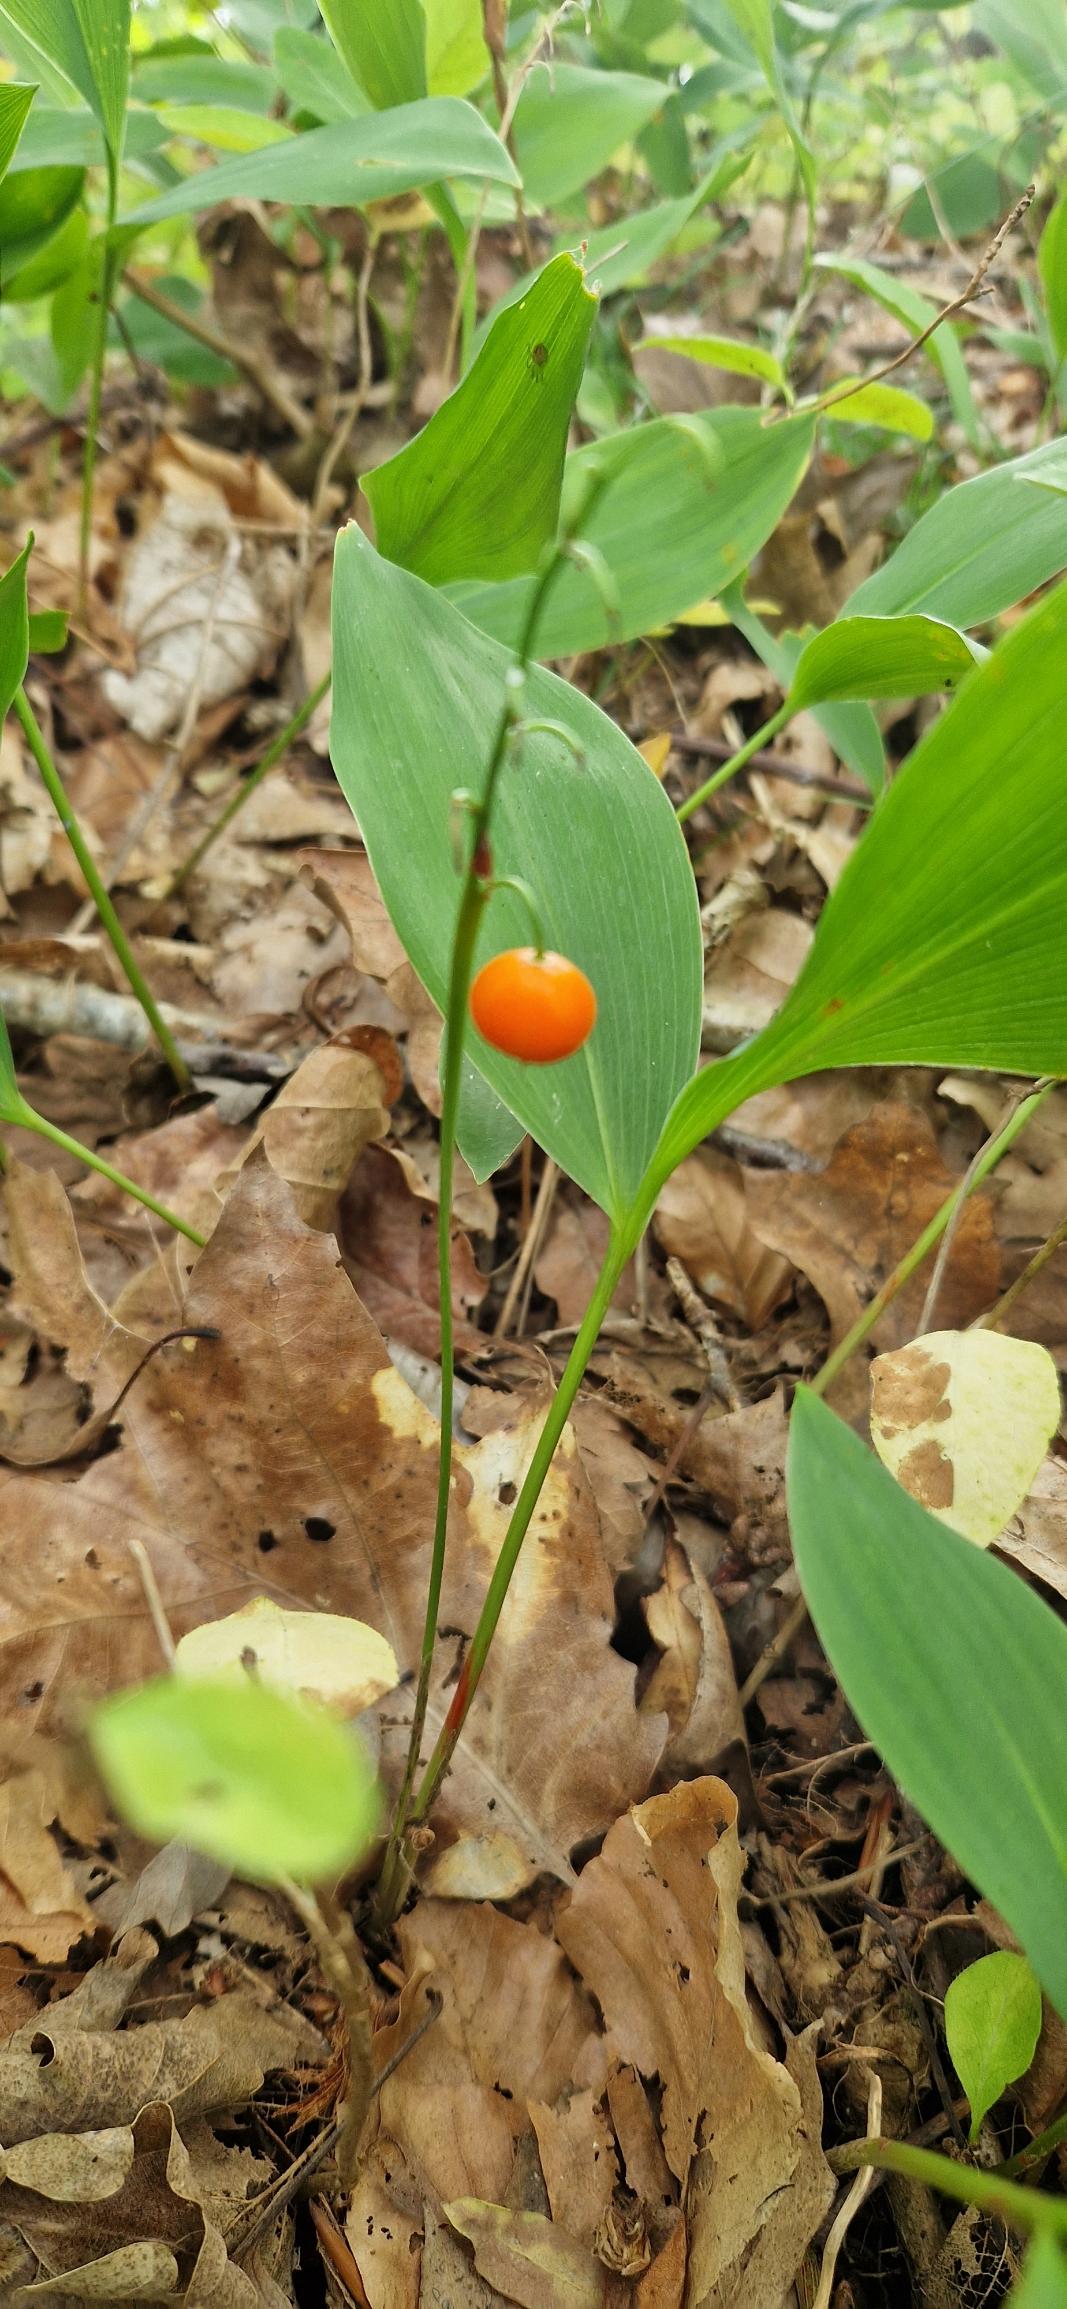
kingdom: Plantae
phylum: Tracheophyta
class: Liliopsida
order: Asparagales
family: Asparagaceae
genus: Convallaria
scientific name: Convallaria majalis
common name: Liljekonval
